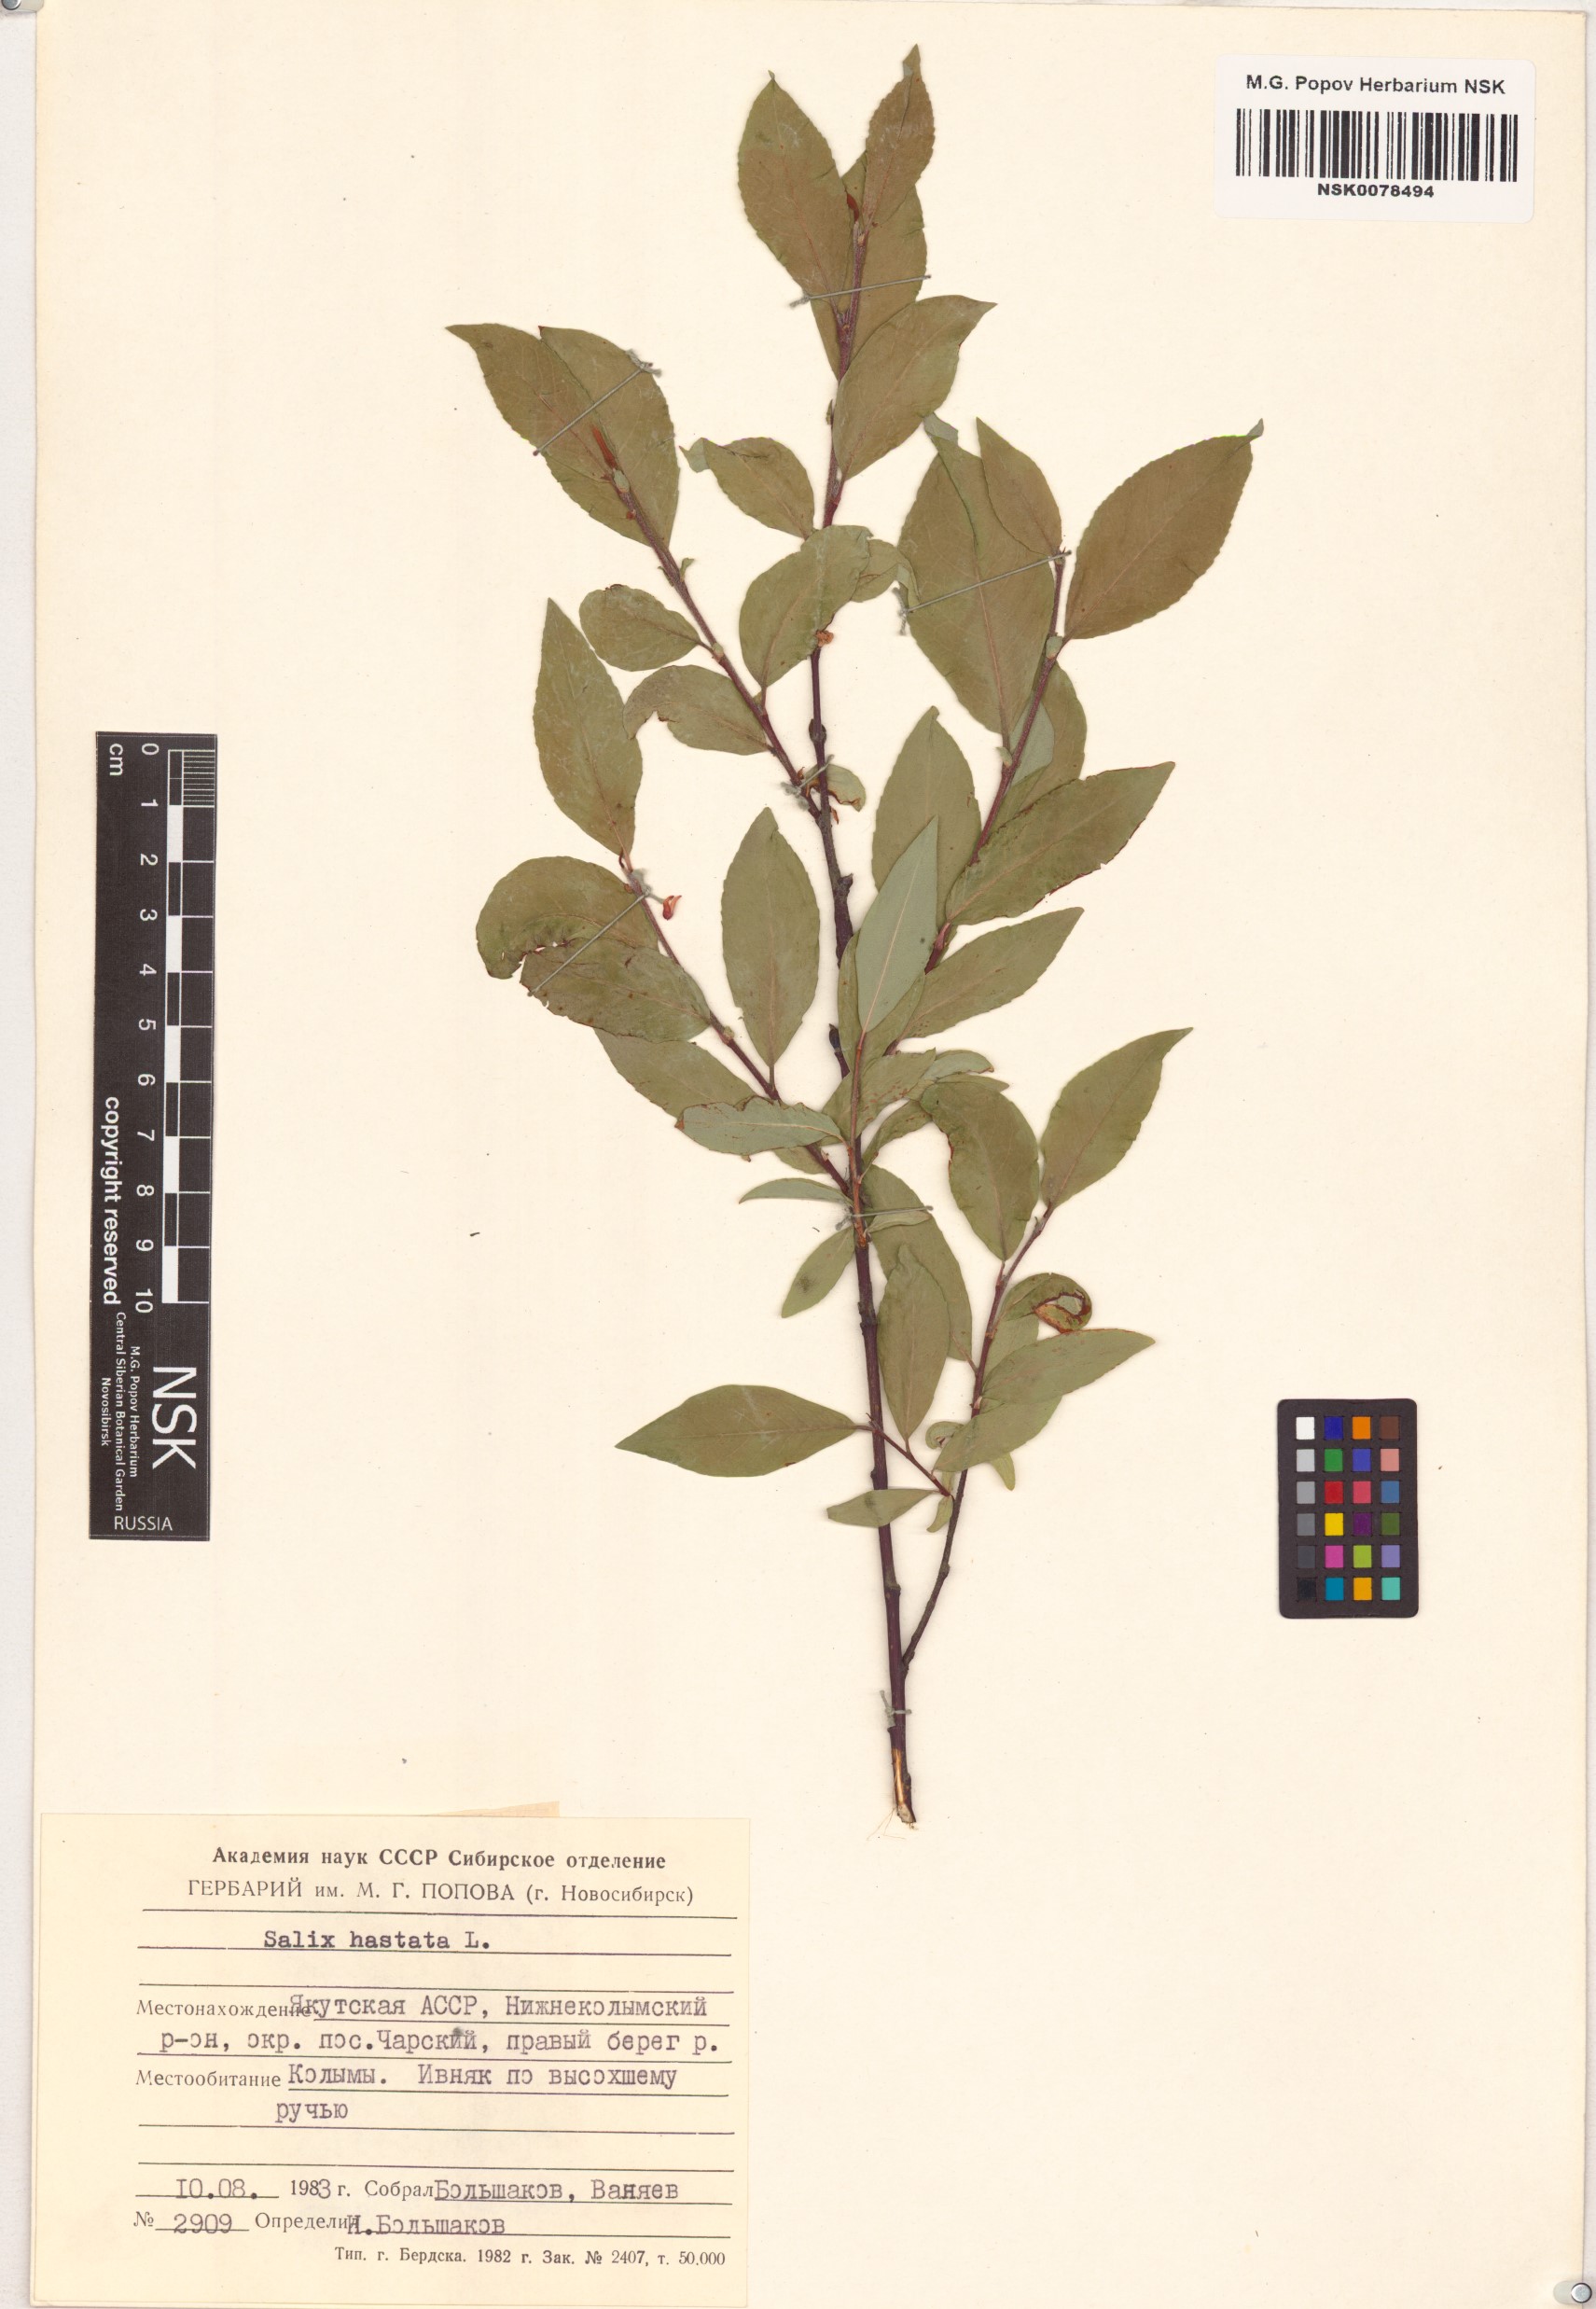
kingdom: Plantae
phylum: Tracheophyta
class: Magnoliopsida
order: Malpighiales
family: Salicaceae
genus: Salix
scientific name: Salix hastata
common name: Halberd willow
